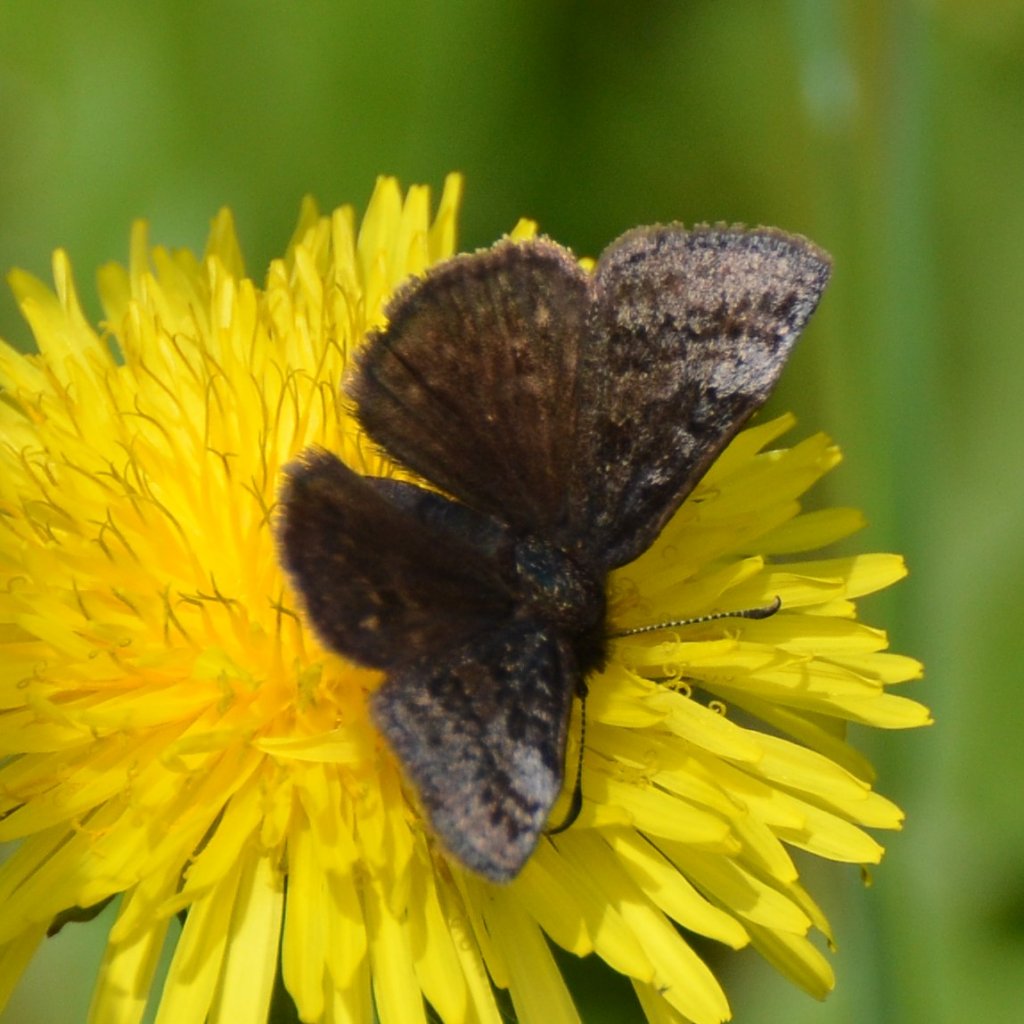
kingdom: Animalia
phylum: Arthropoda
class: Insecta
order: Lepidoptera
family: Hesperiidae
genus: Erynnis
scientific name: Erynnis icelus
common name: Dreamy Duskywing
